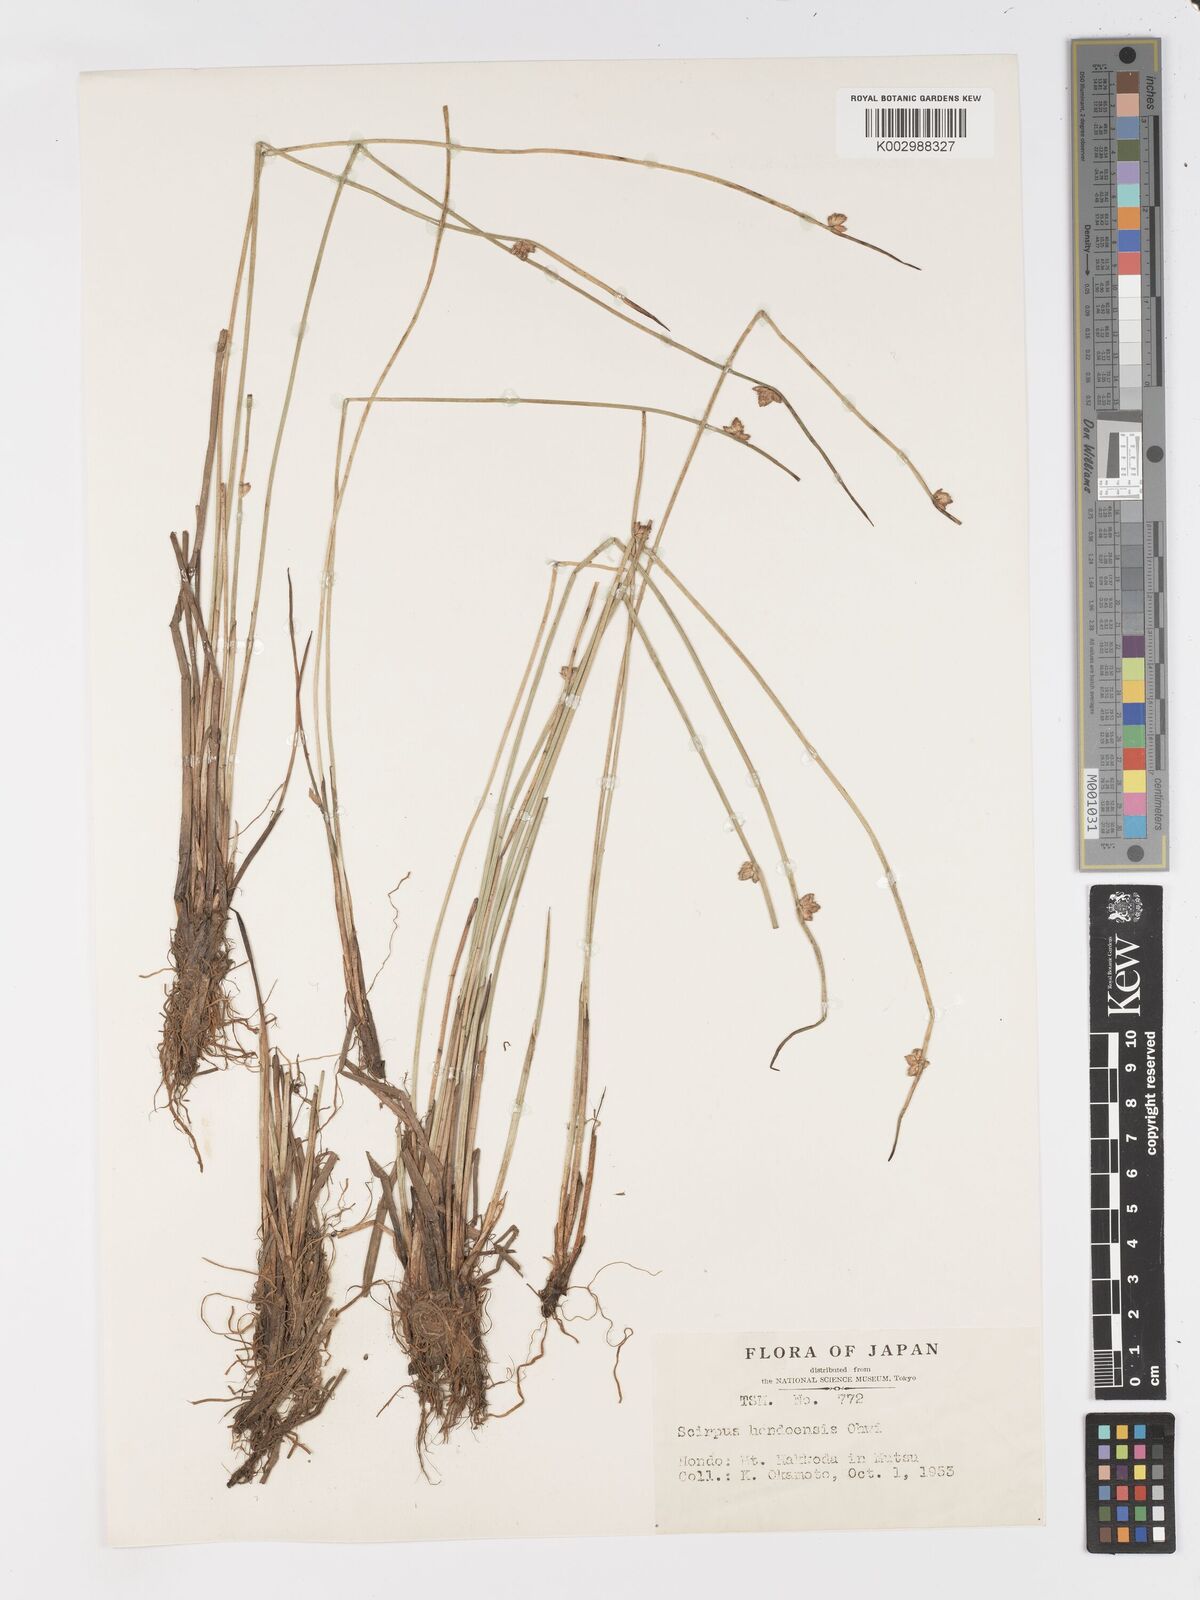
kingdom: Plantae
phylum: Tracheophyta
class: Liliopsida
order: Poales
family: Cyperaceae
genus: Schoenoplectiella
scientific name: Schoenoplectiella hondoensis
